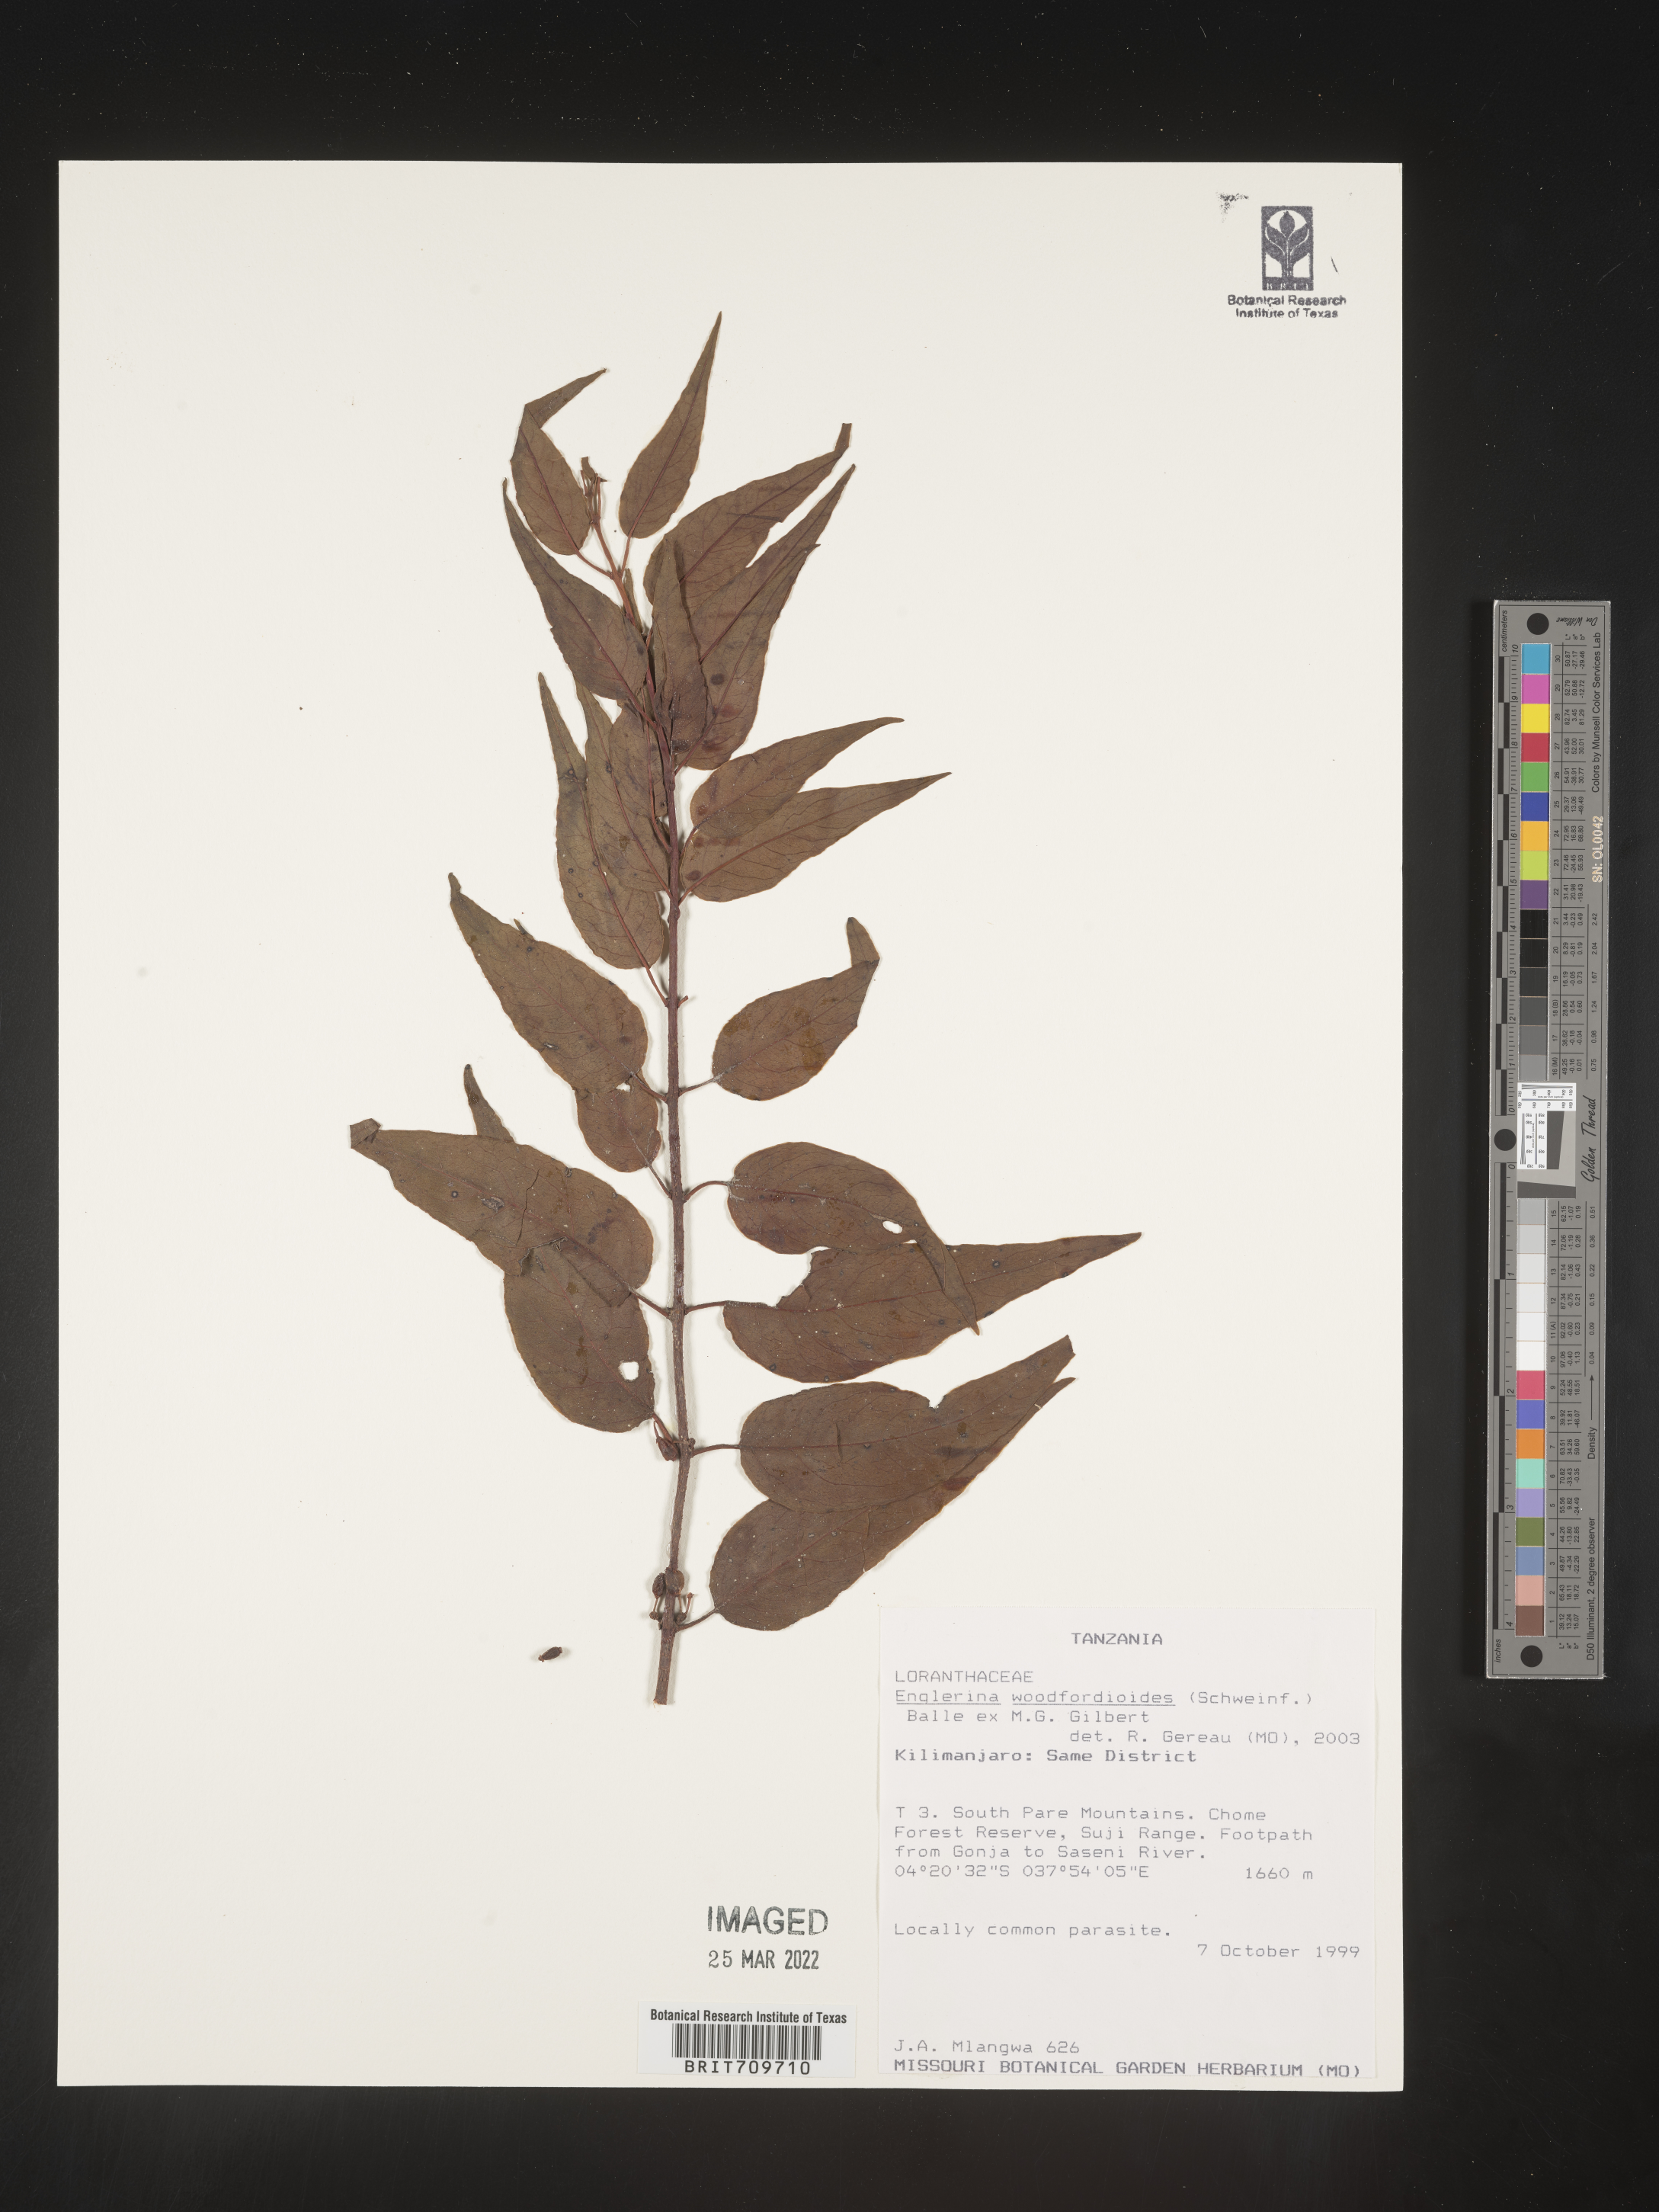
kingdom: Plantae
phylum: Tracheophyta
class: Magnoliopsida
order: Santalales
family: Loranthaceae
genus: Englerina
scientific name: Englerina
